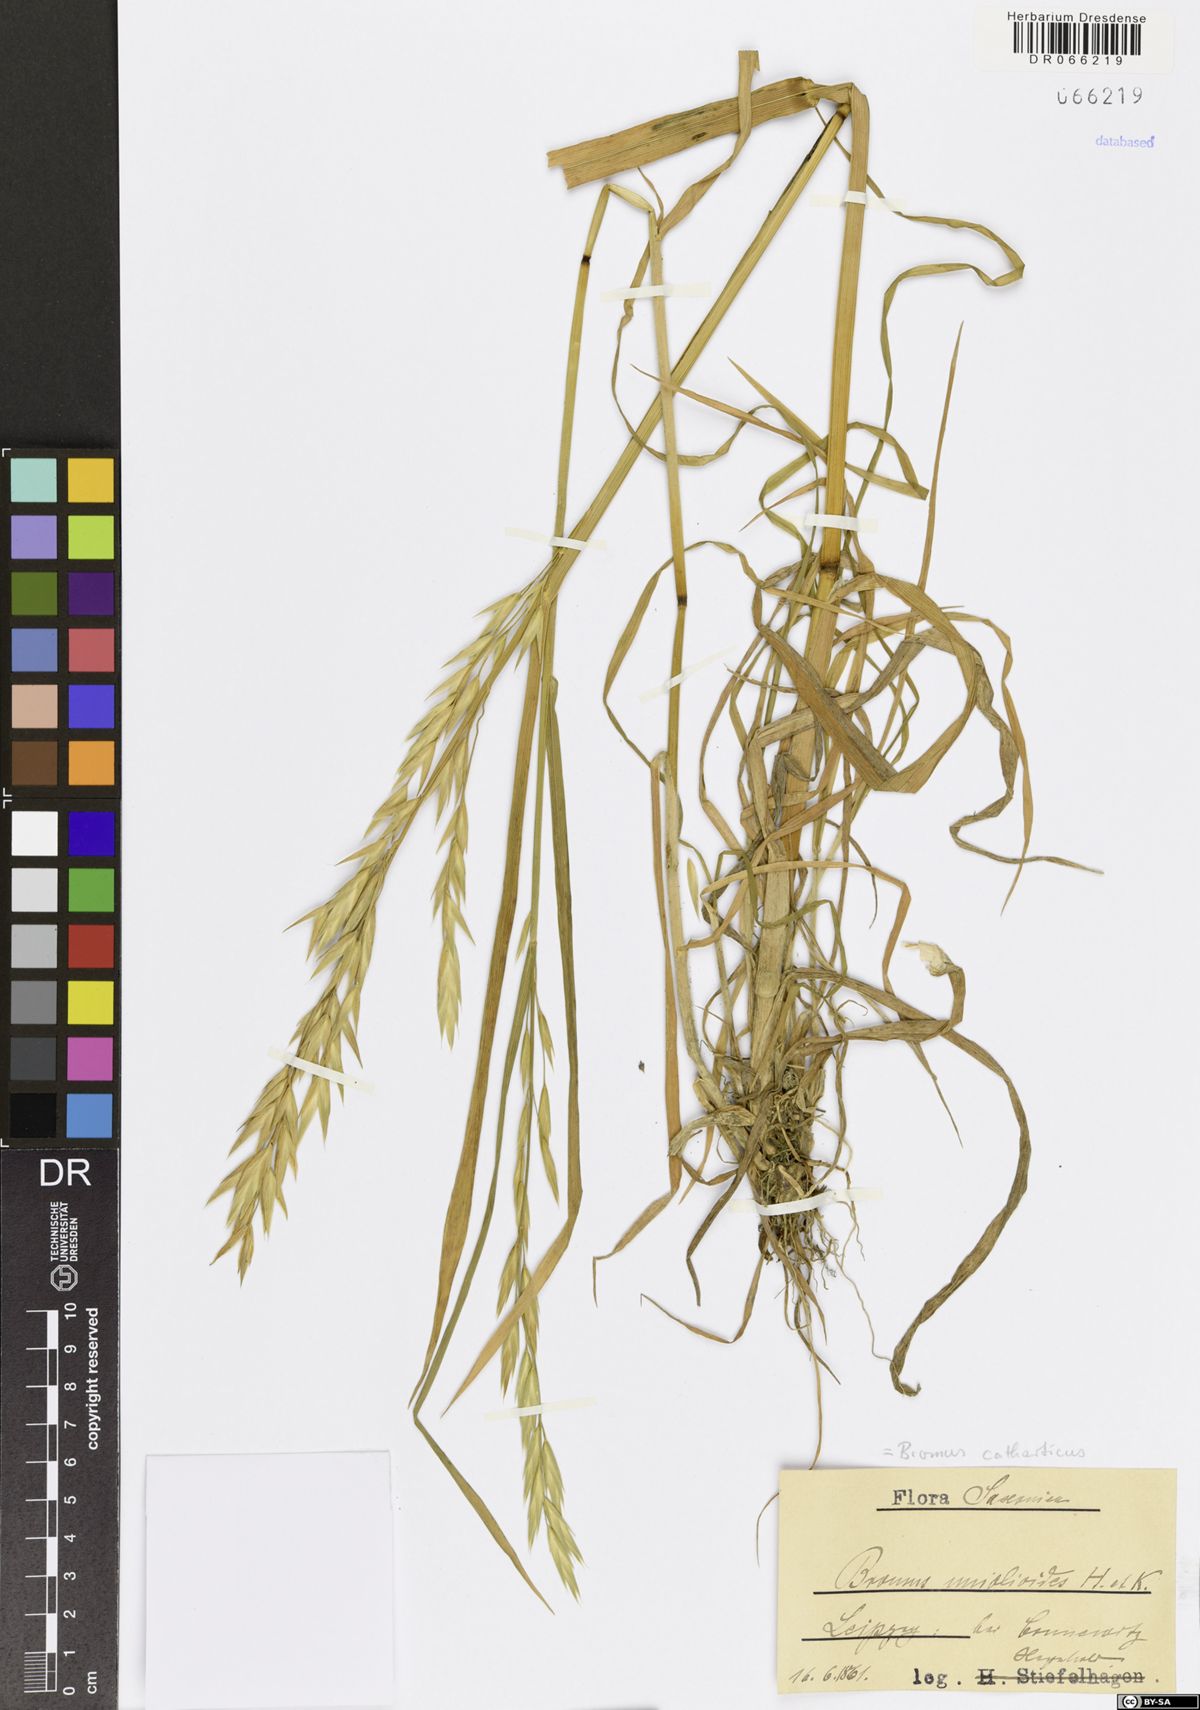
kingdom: Plantae
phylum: Tracheophyta
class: Liliopsida
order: Poales
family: Poaceae
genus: Bromus
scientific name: Bromus catharticus
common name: Rescuegrass
